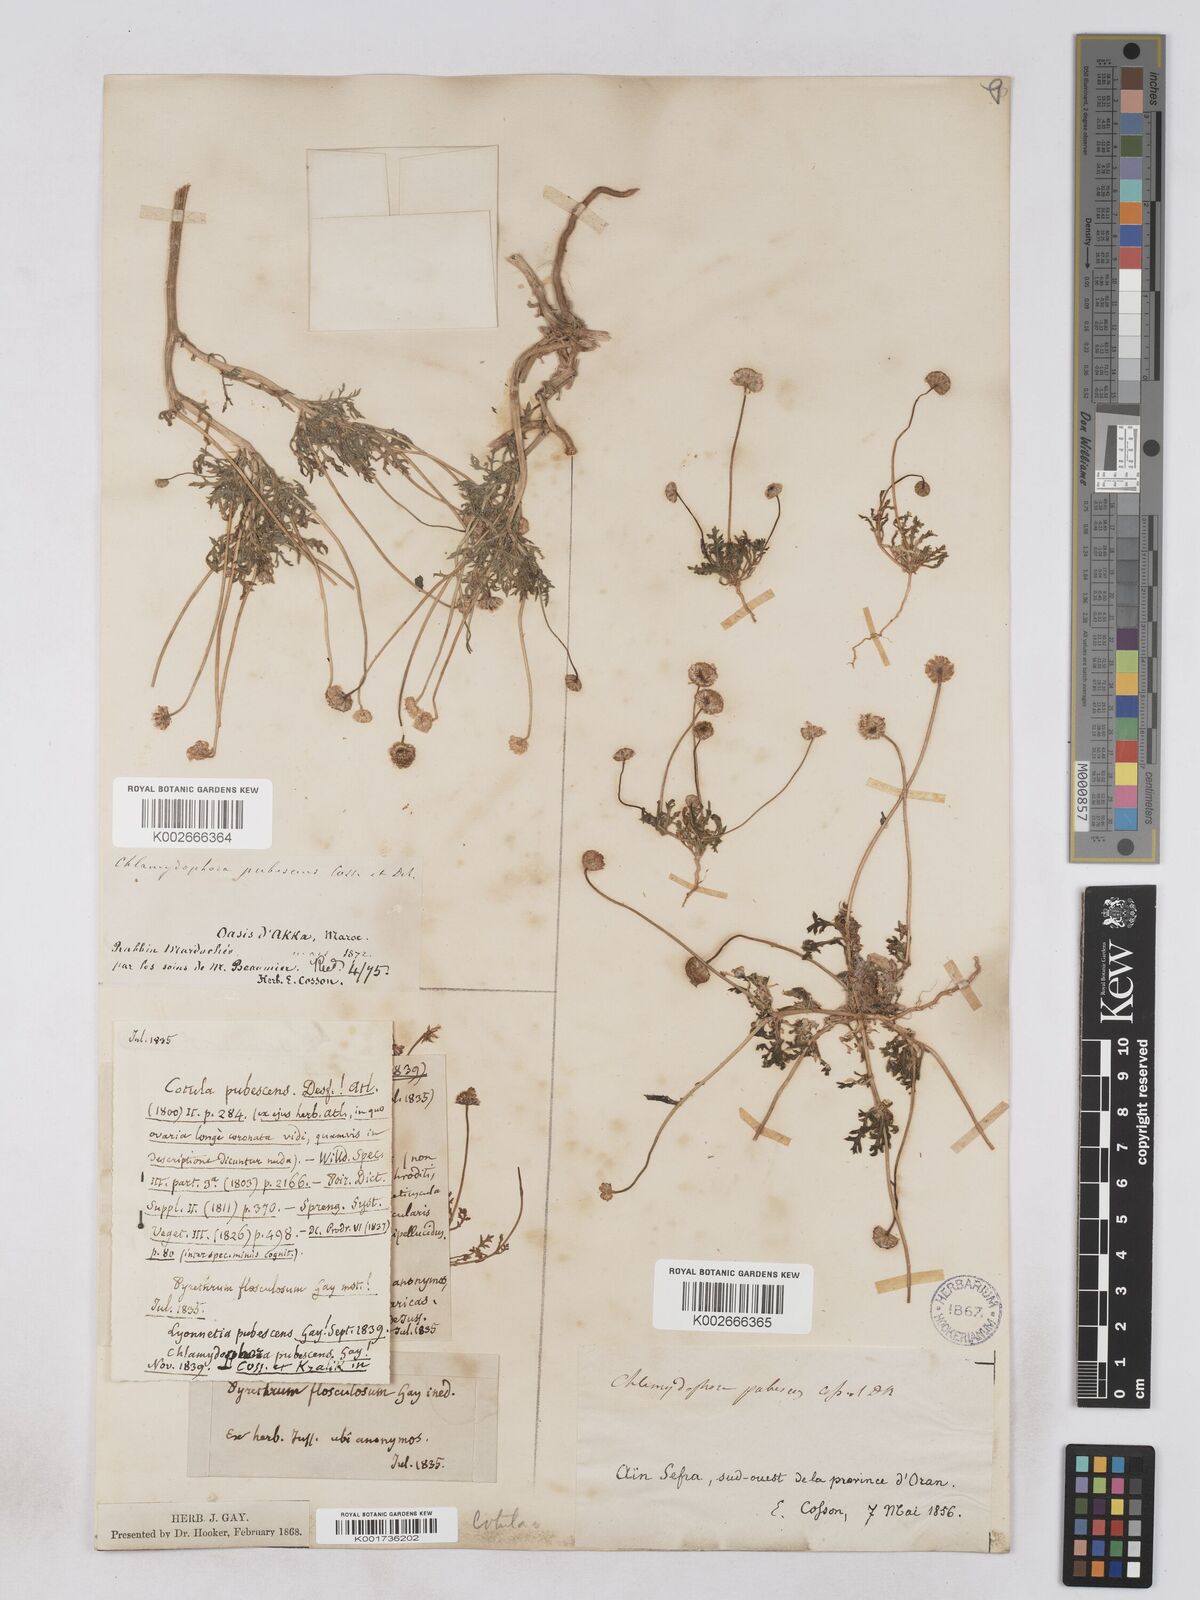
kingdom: Plantae
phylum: Tracheophyta
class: Magnoliopsida
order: Asterales
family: Asteraceae
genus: Otoglyphis
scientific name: Otoglyphis pubescens
